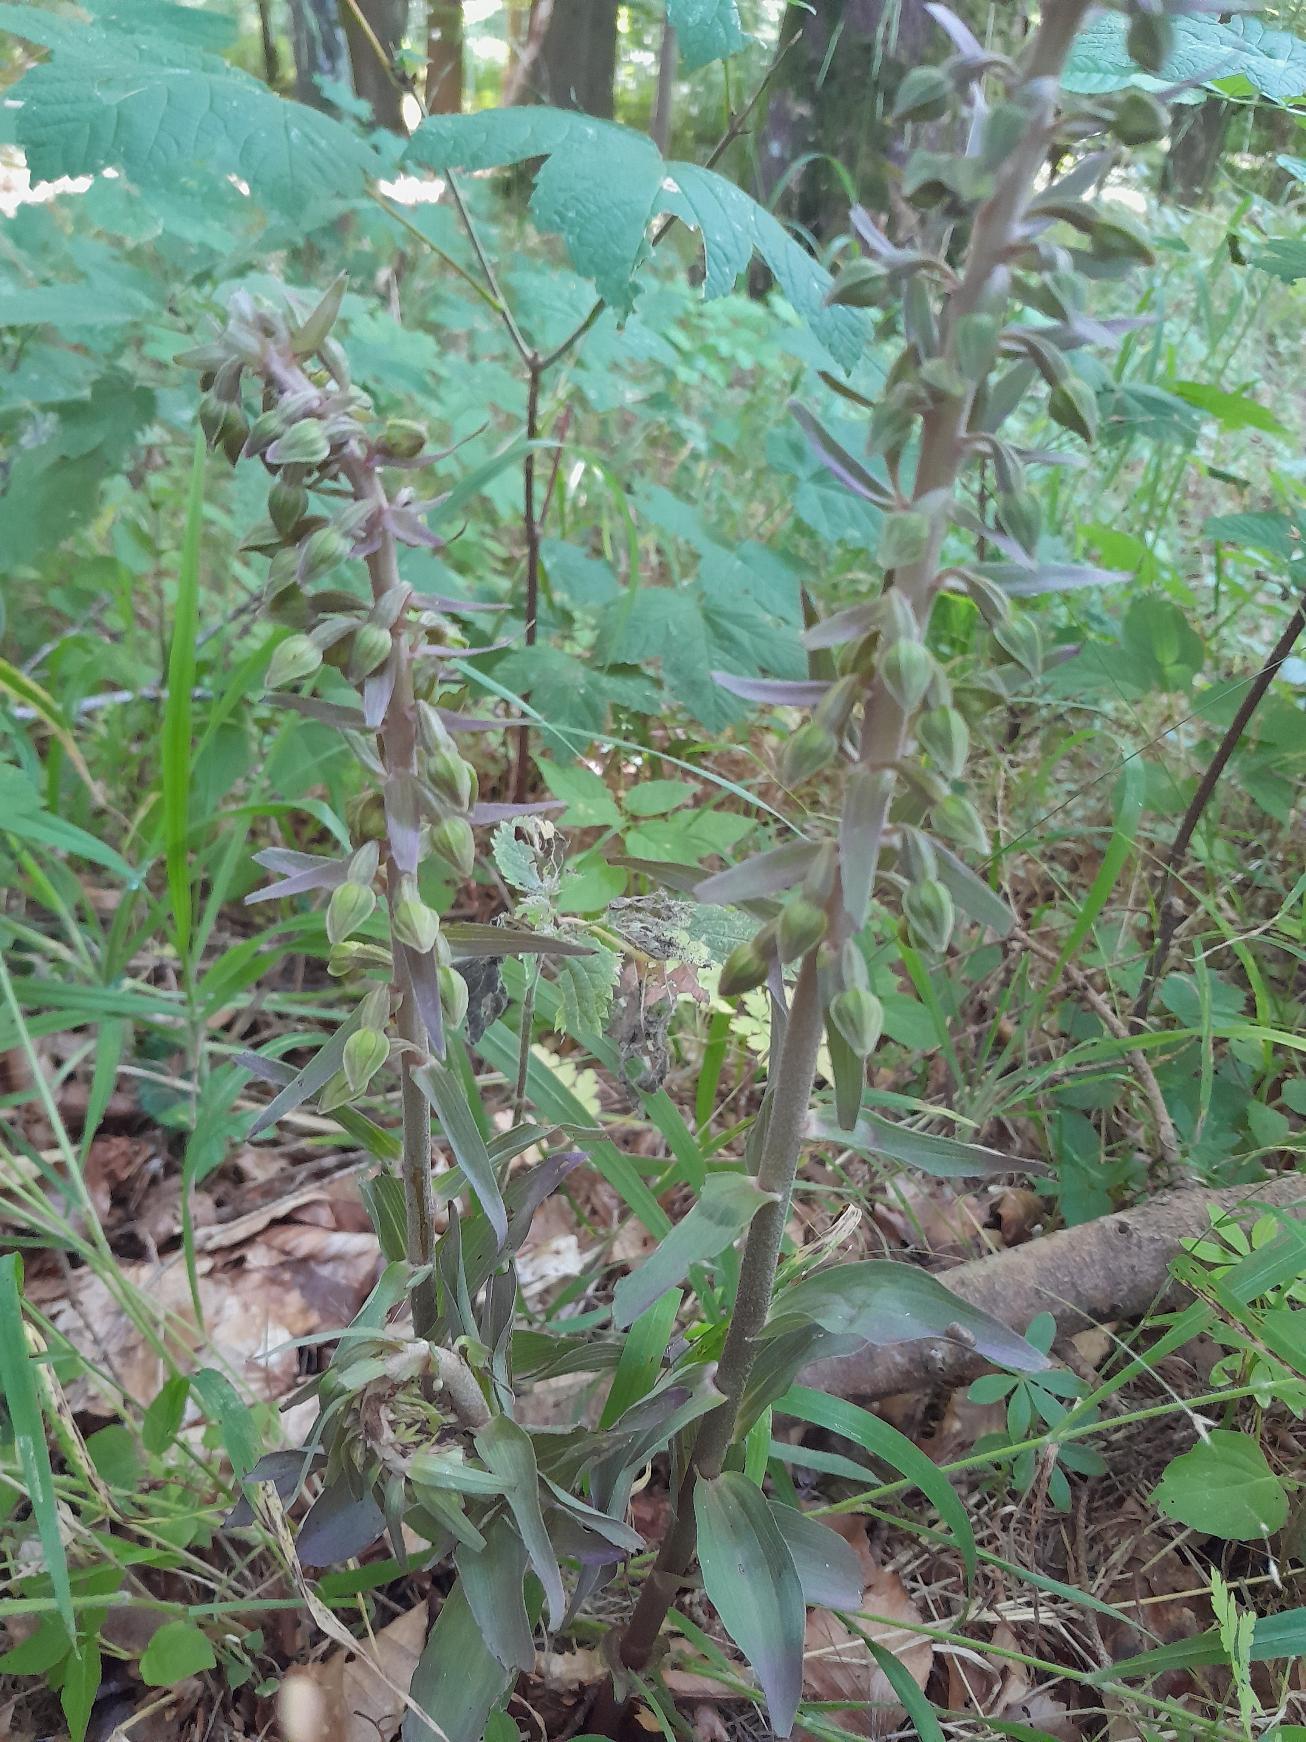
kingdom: Plantae
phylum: Tracheophyta
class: Liliopsida
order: Asparagales
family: Orchidaceae
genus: Epipactis
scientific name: Epipactis purpurata
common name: Tætblomstret hullæbe
